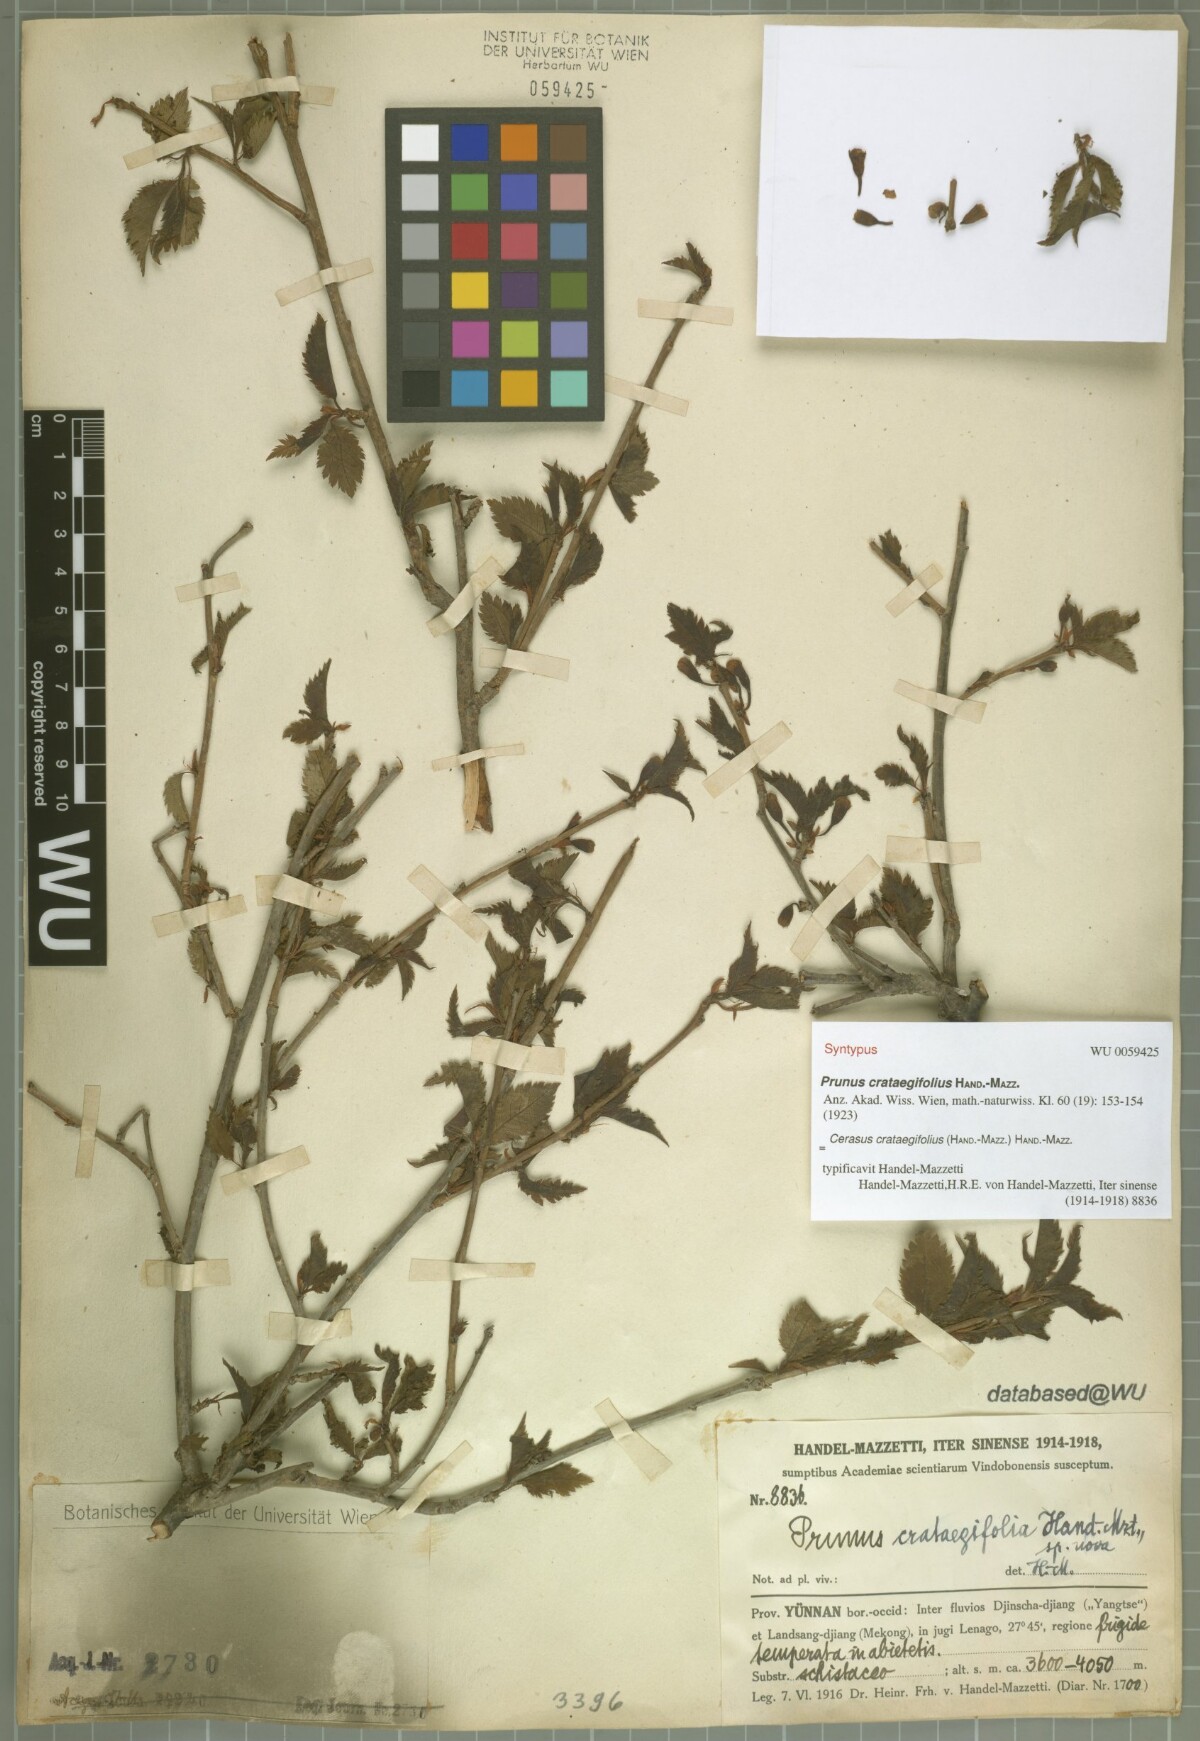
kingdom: Plantae
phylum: Tracheophyta
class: Magnoliopsida
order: Rosales
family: Rosaceae
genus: Prunus
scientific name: Prunus crataegifolia
